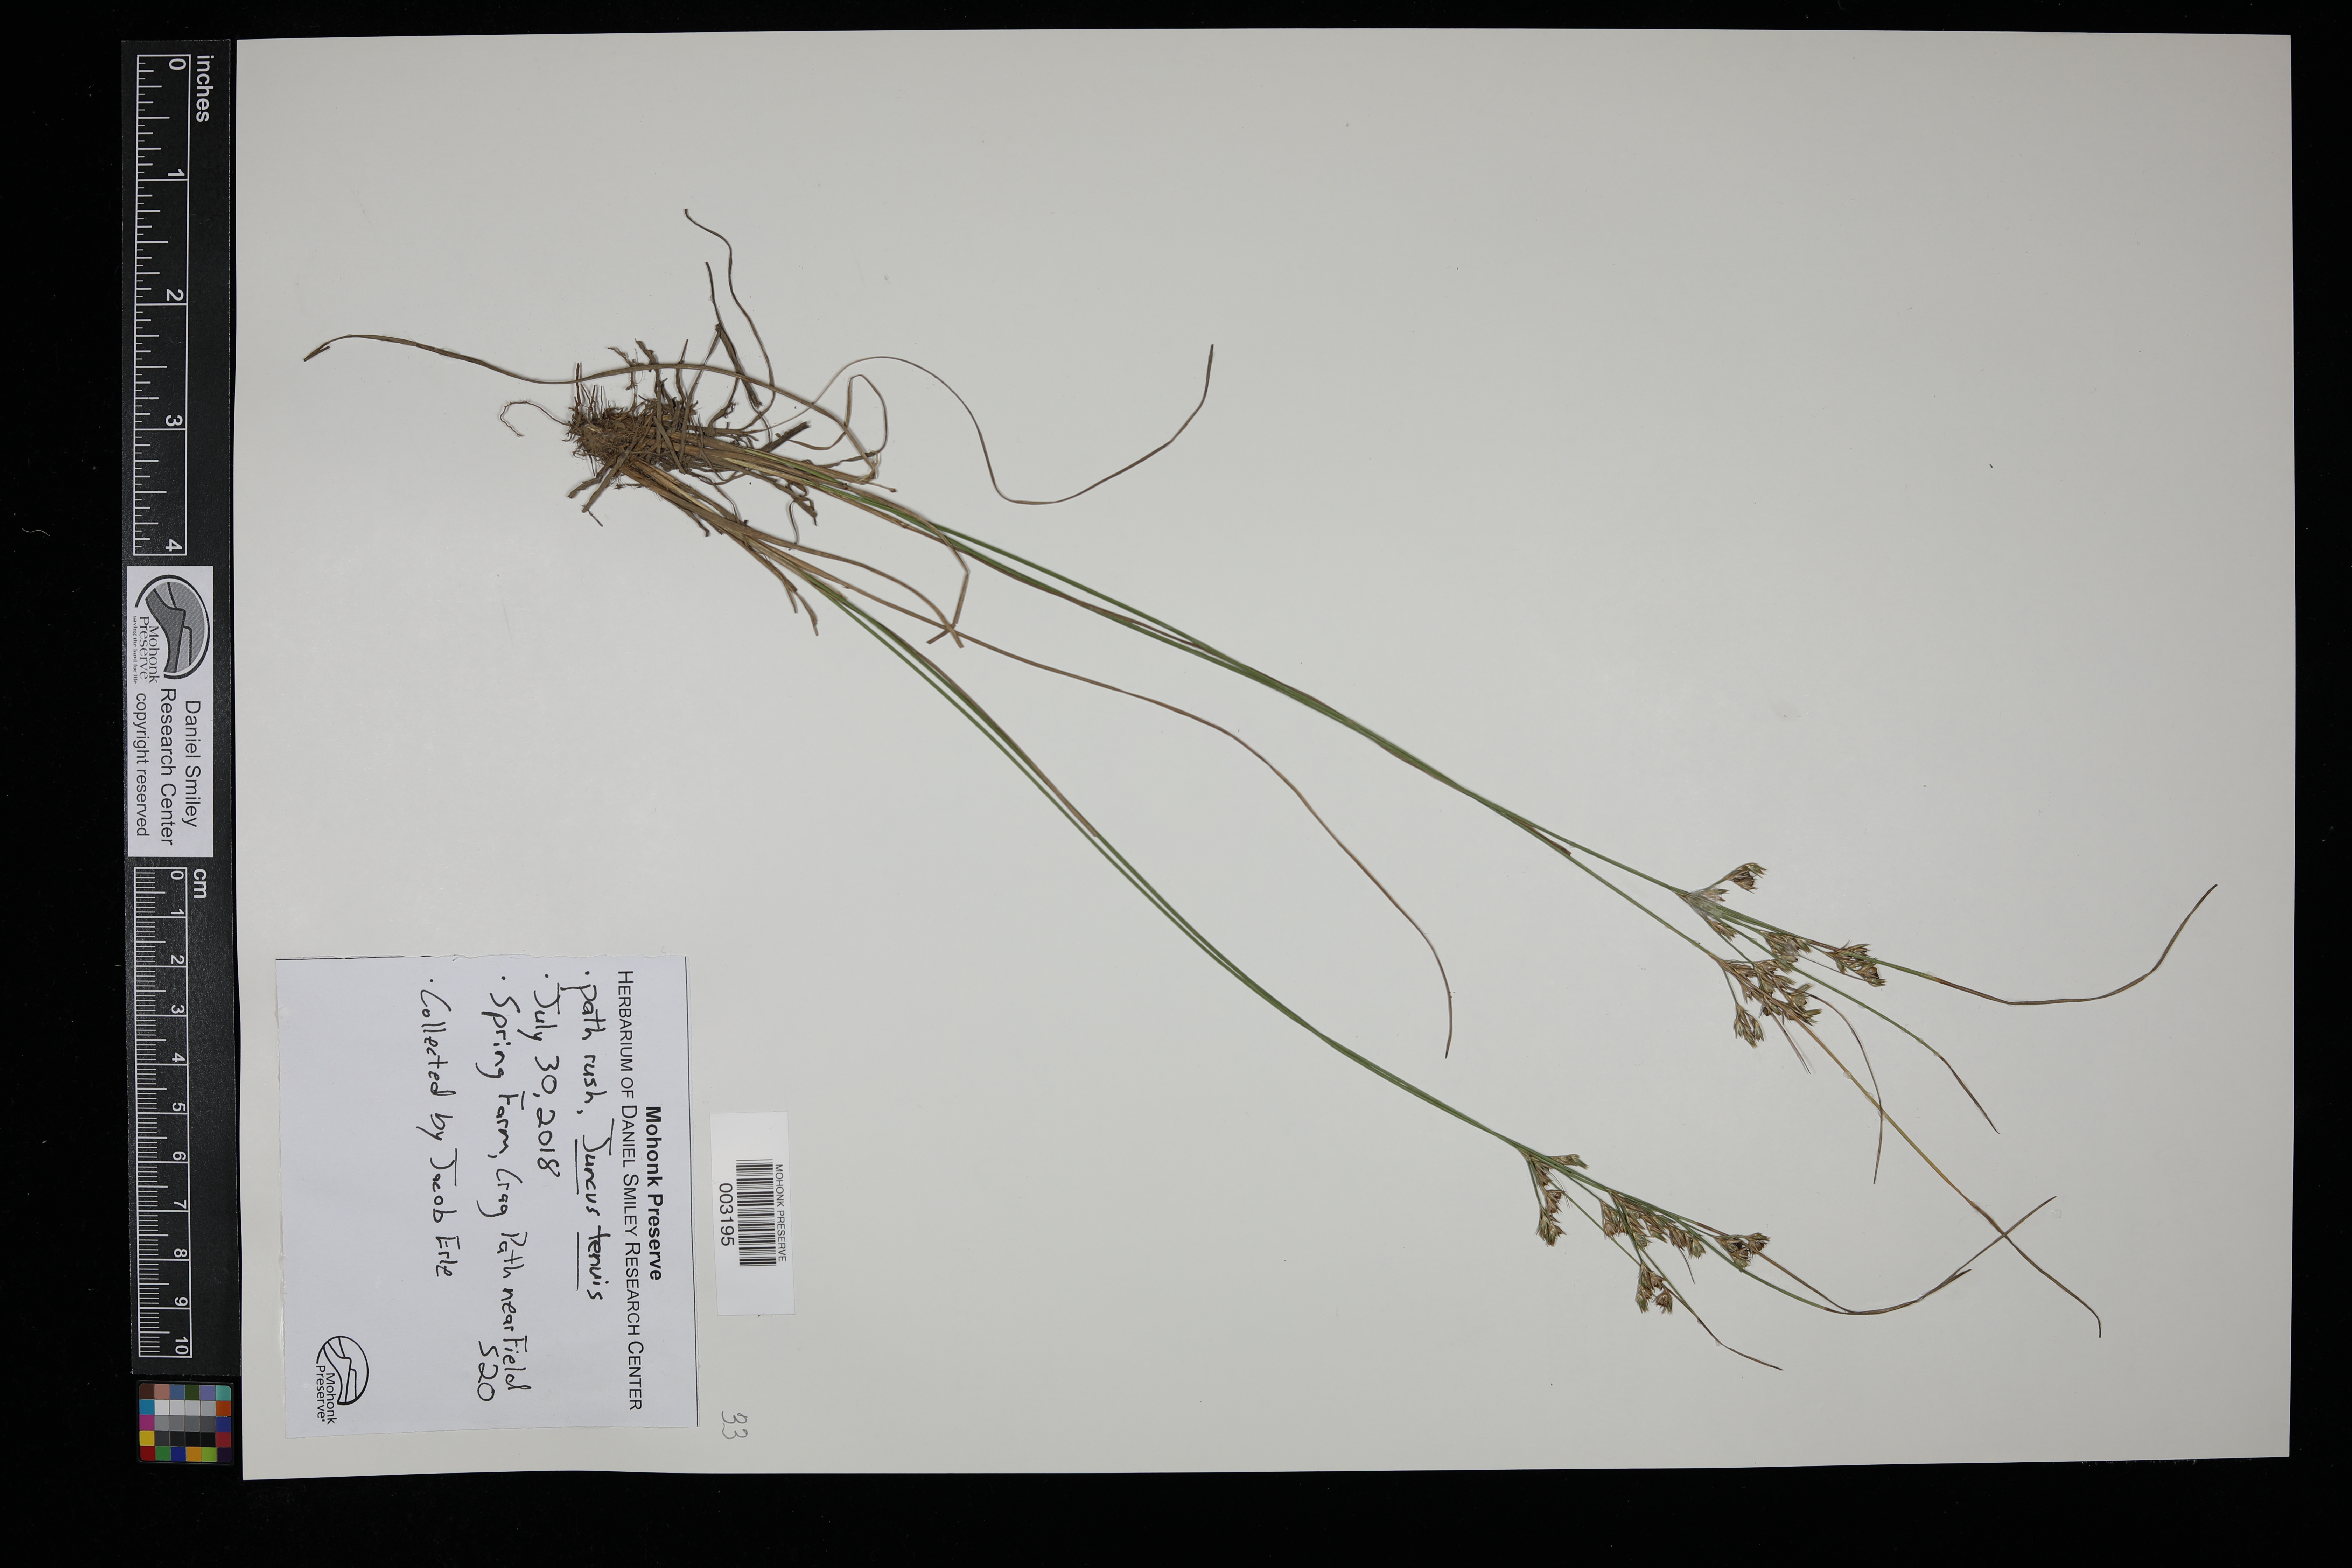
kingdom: Plantae
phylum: Tracheophyta
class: Liliopsida
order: Poales
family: Juncaceae
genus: Juncus
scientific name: Juncus tenuis
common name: Slender rush
